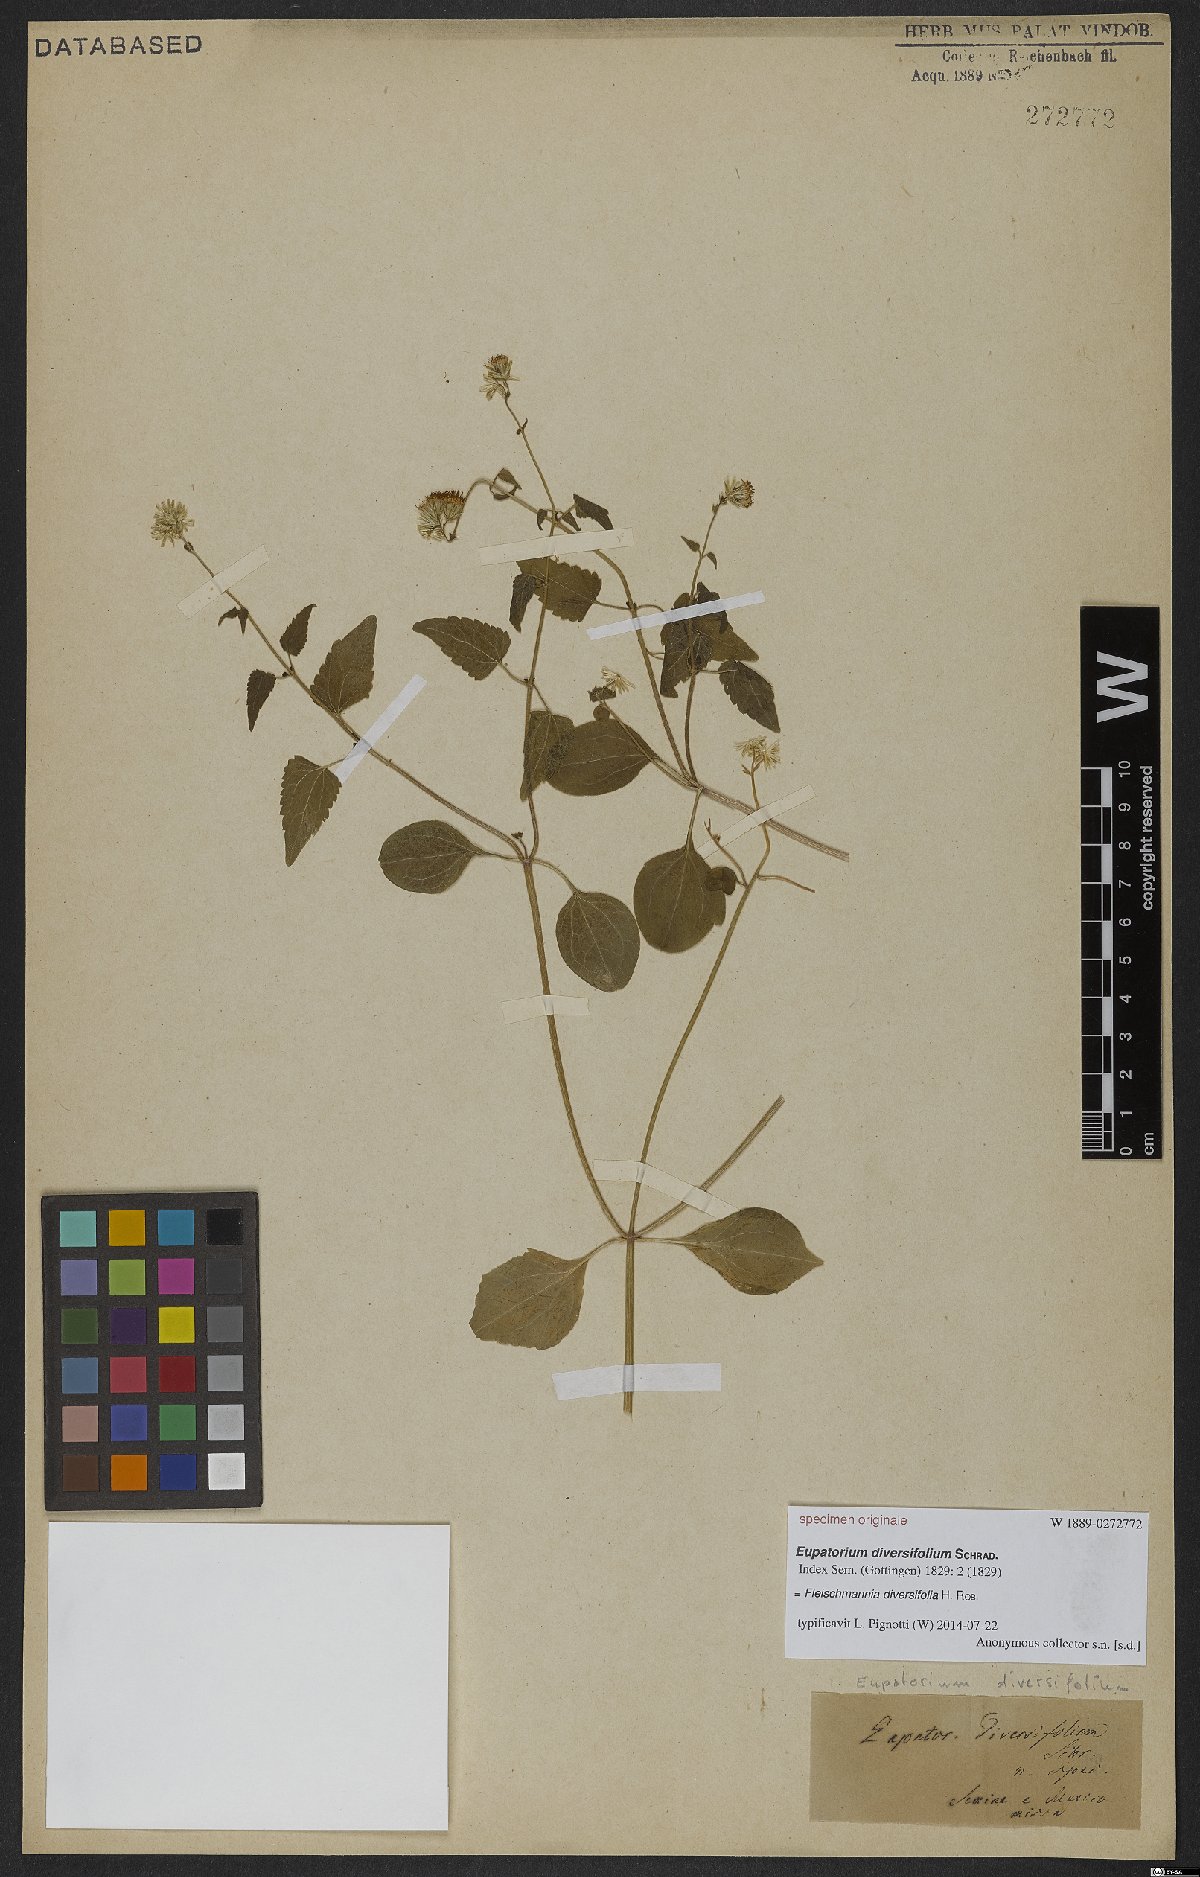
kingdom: Plantae
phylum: Tracheophyta
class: Magnoliopsida
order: Asterales
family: Asteraceae
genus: Fleischmannia
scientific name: Fleischmannia pycnocephala
